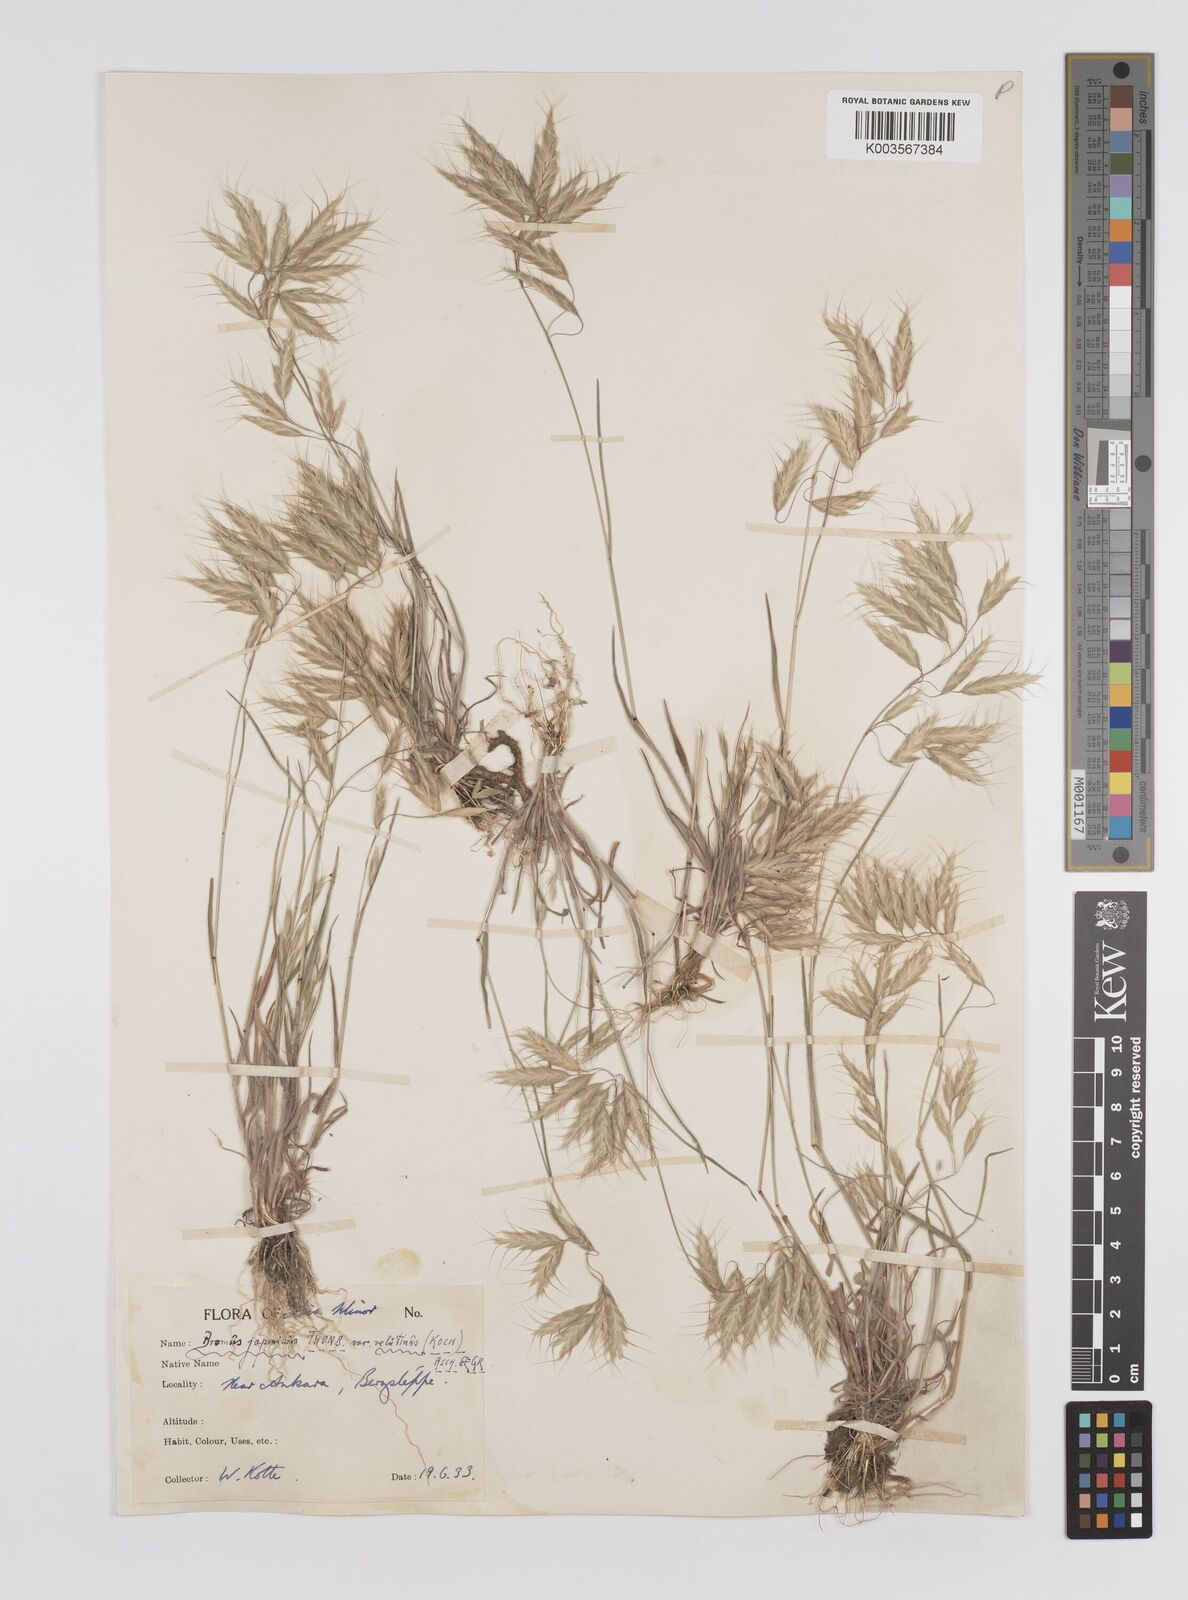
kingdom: Plantae
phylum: Tracheophyta
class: Liliopsida
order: Poales
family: Poaceae
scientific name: Poaceae
